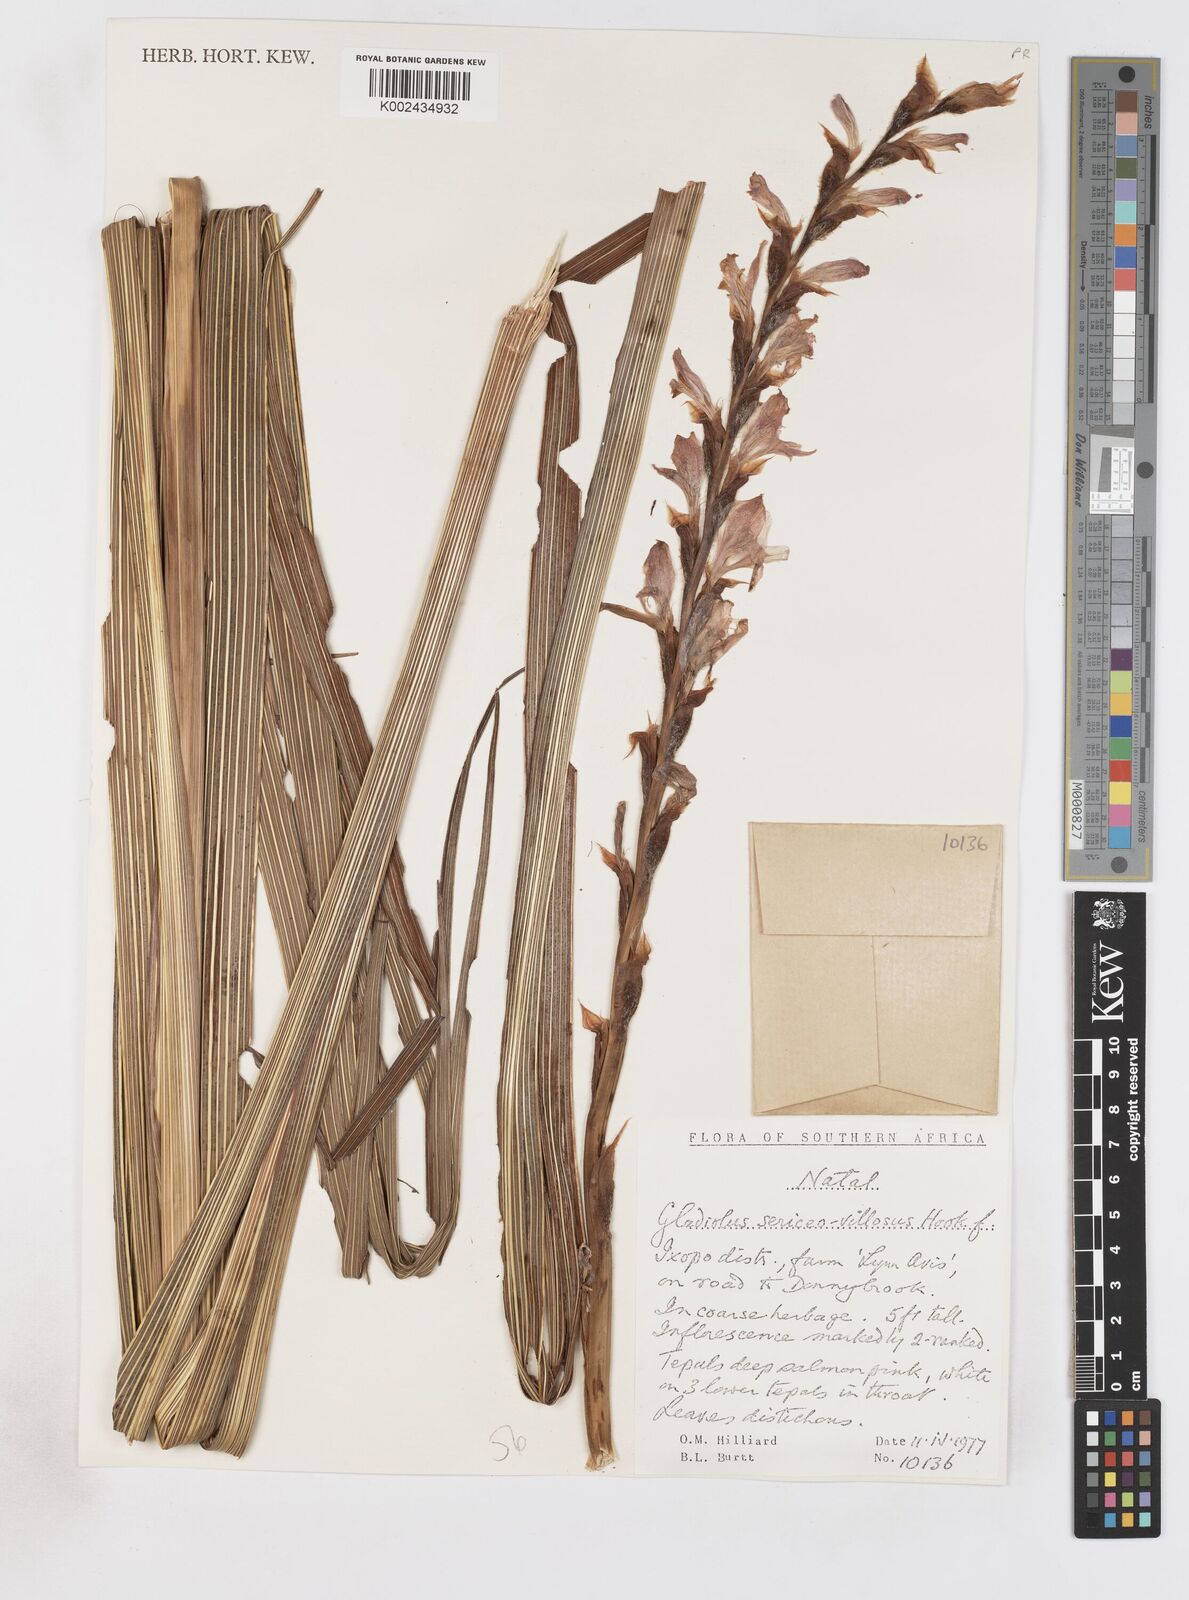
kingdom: Plantae
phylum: Tracheophyta
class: Liliopsida
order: Asparagales
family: Iridaceae
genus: Gladiolus
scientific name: Gladiolus sericeovillosus
